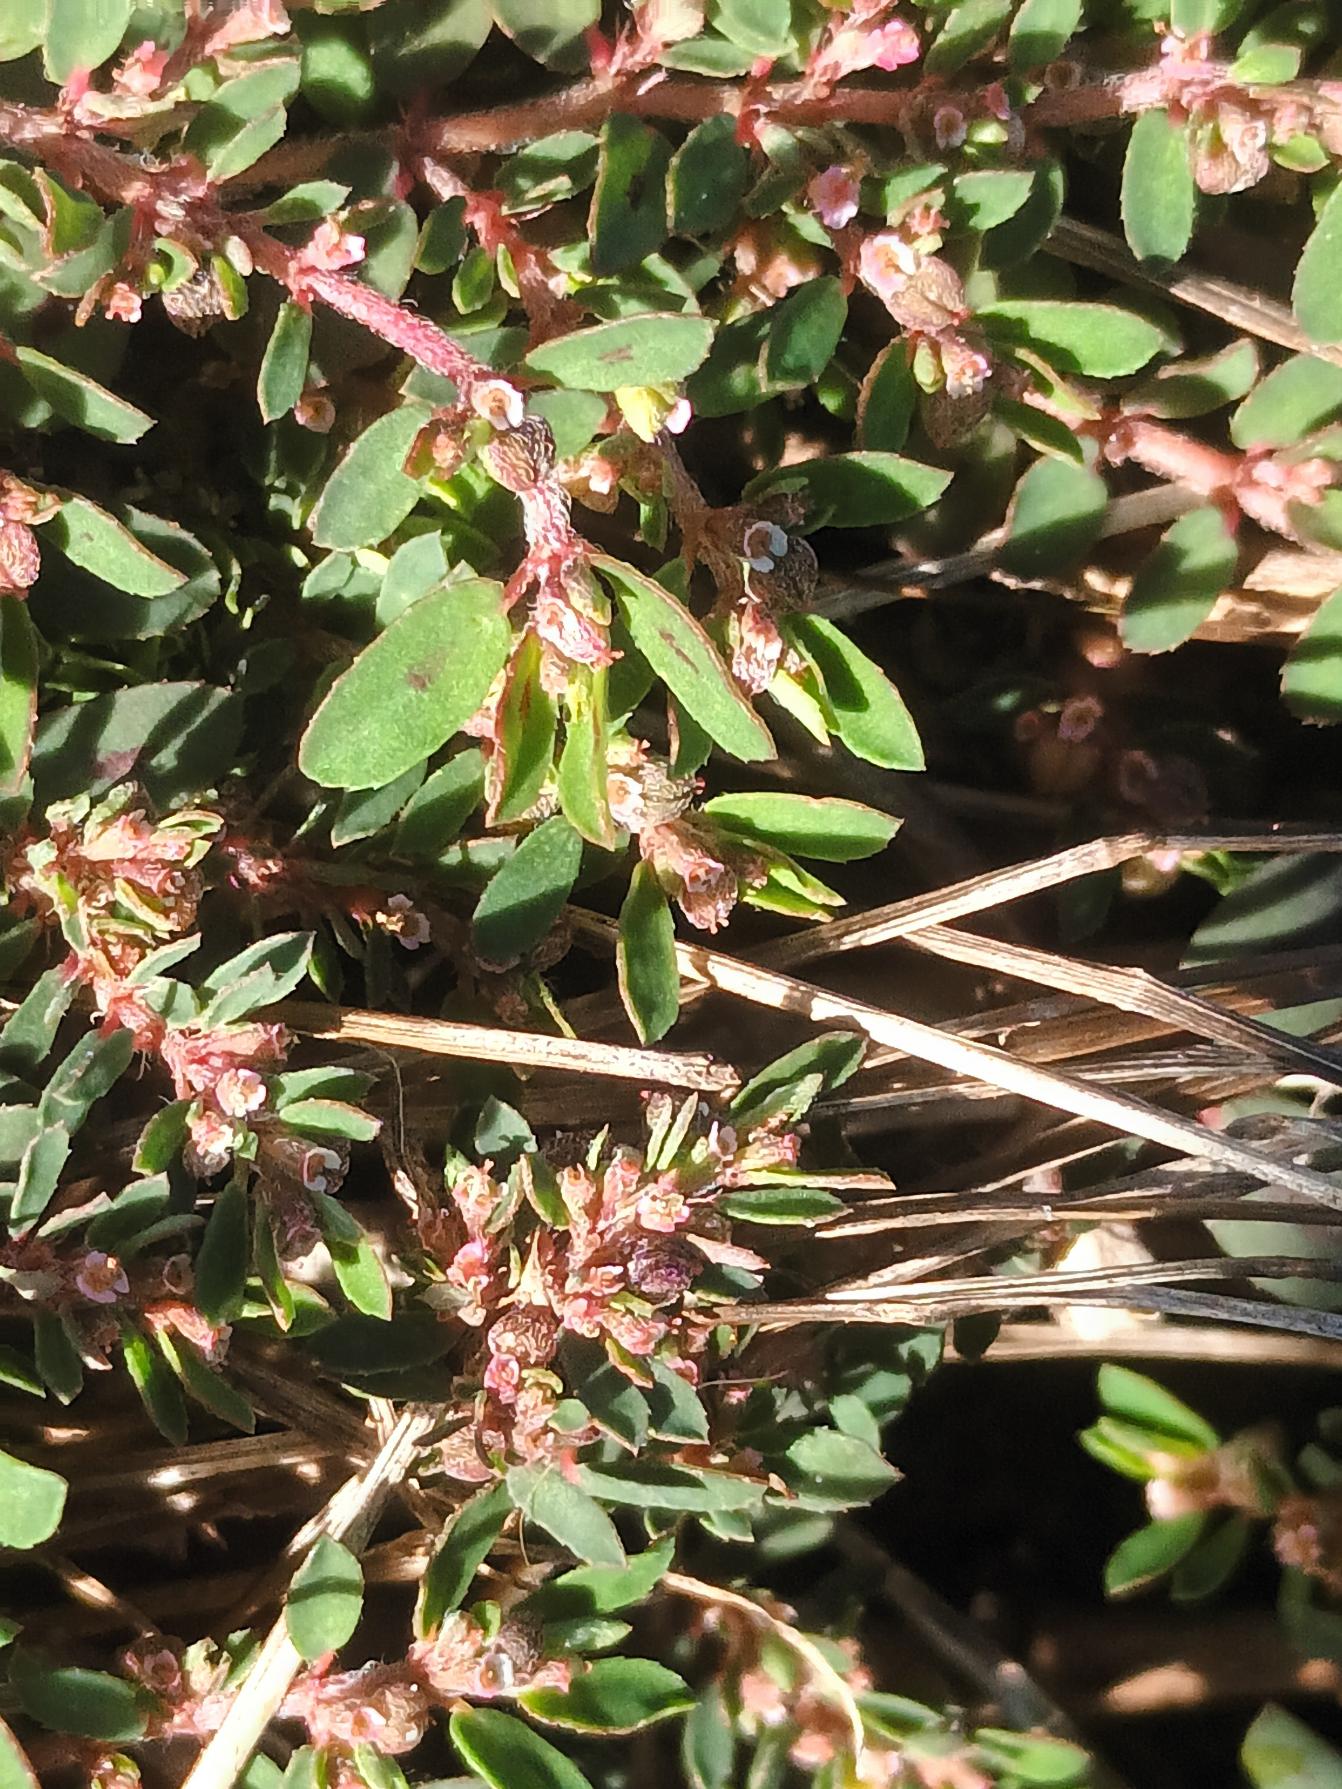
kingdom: Plantae
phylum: Tracheophyta
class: Magnoliopsida
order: Malpighiales
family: Euphorbiaceae
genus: Euphorbia
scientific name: Euphorbia maculata
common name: Plet-vortemælk
